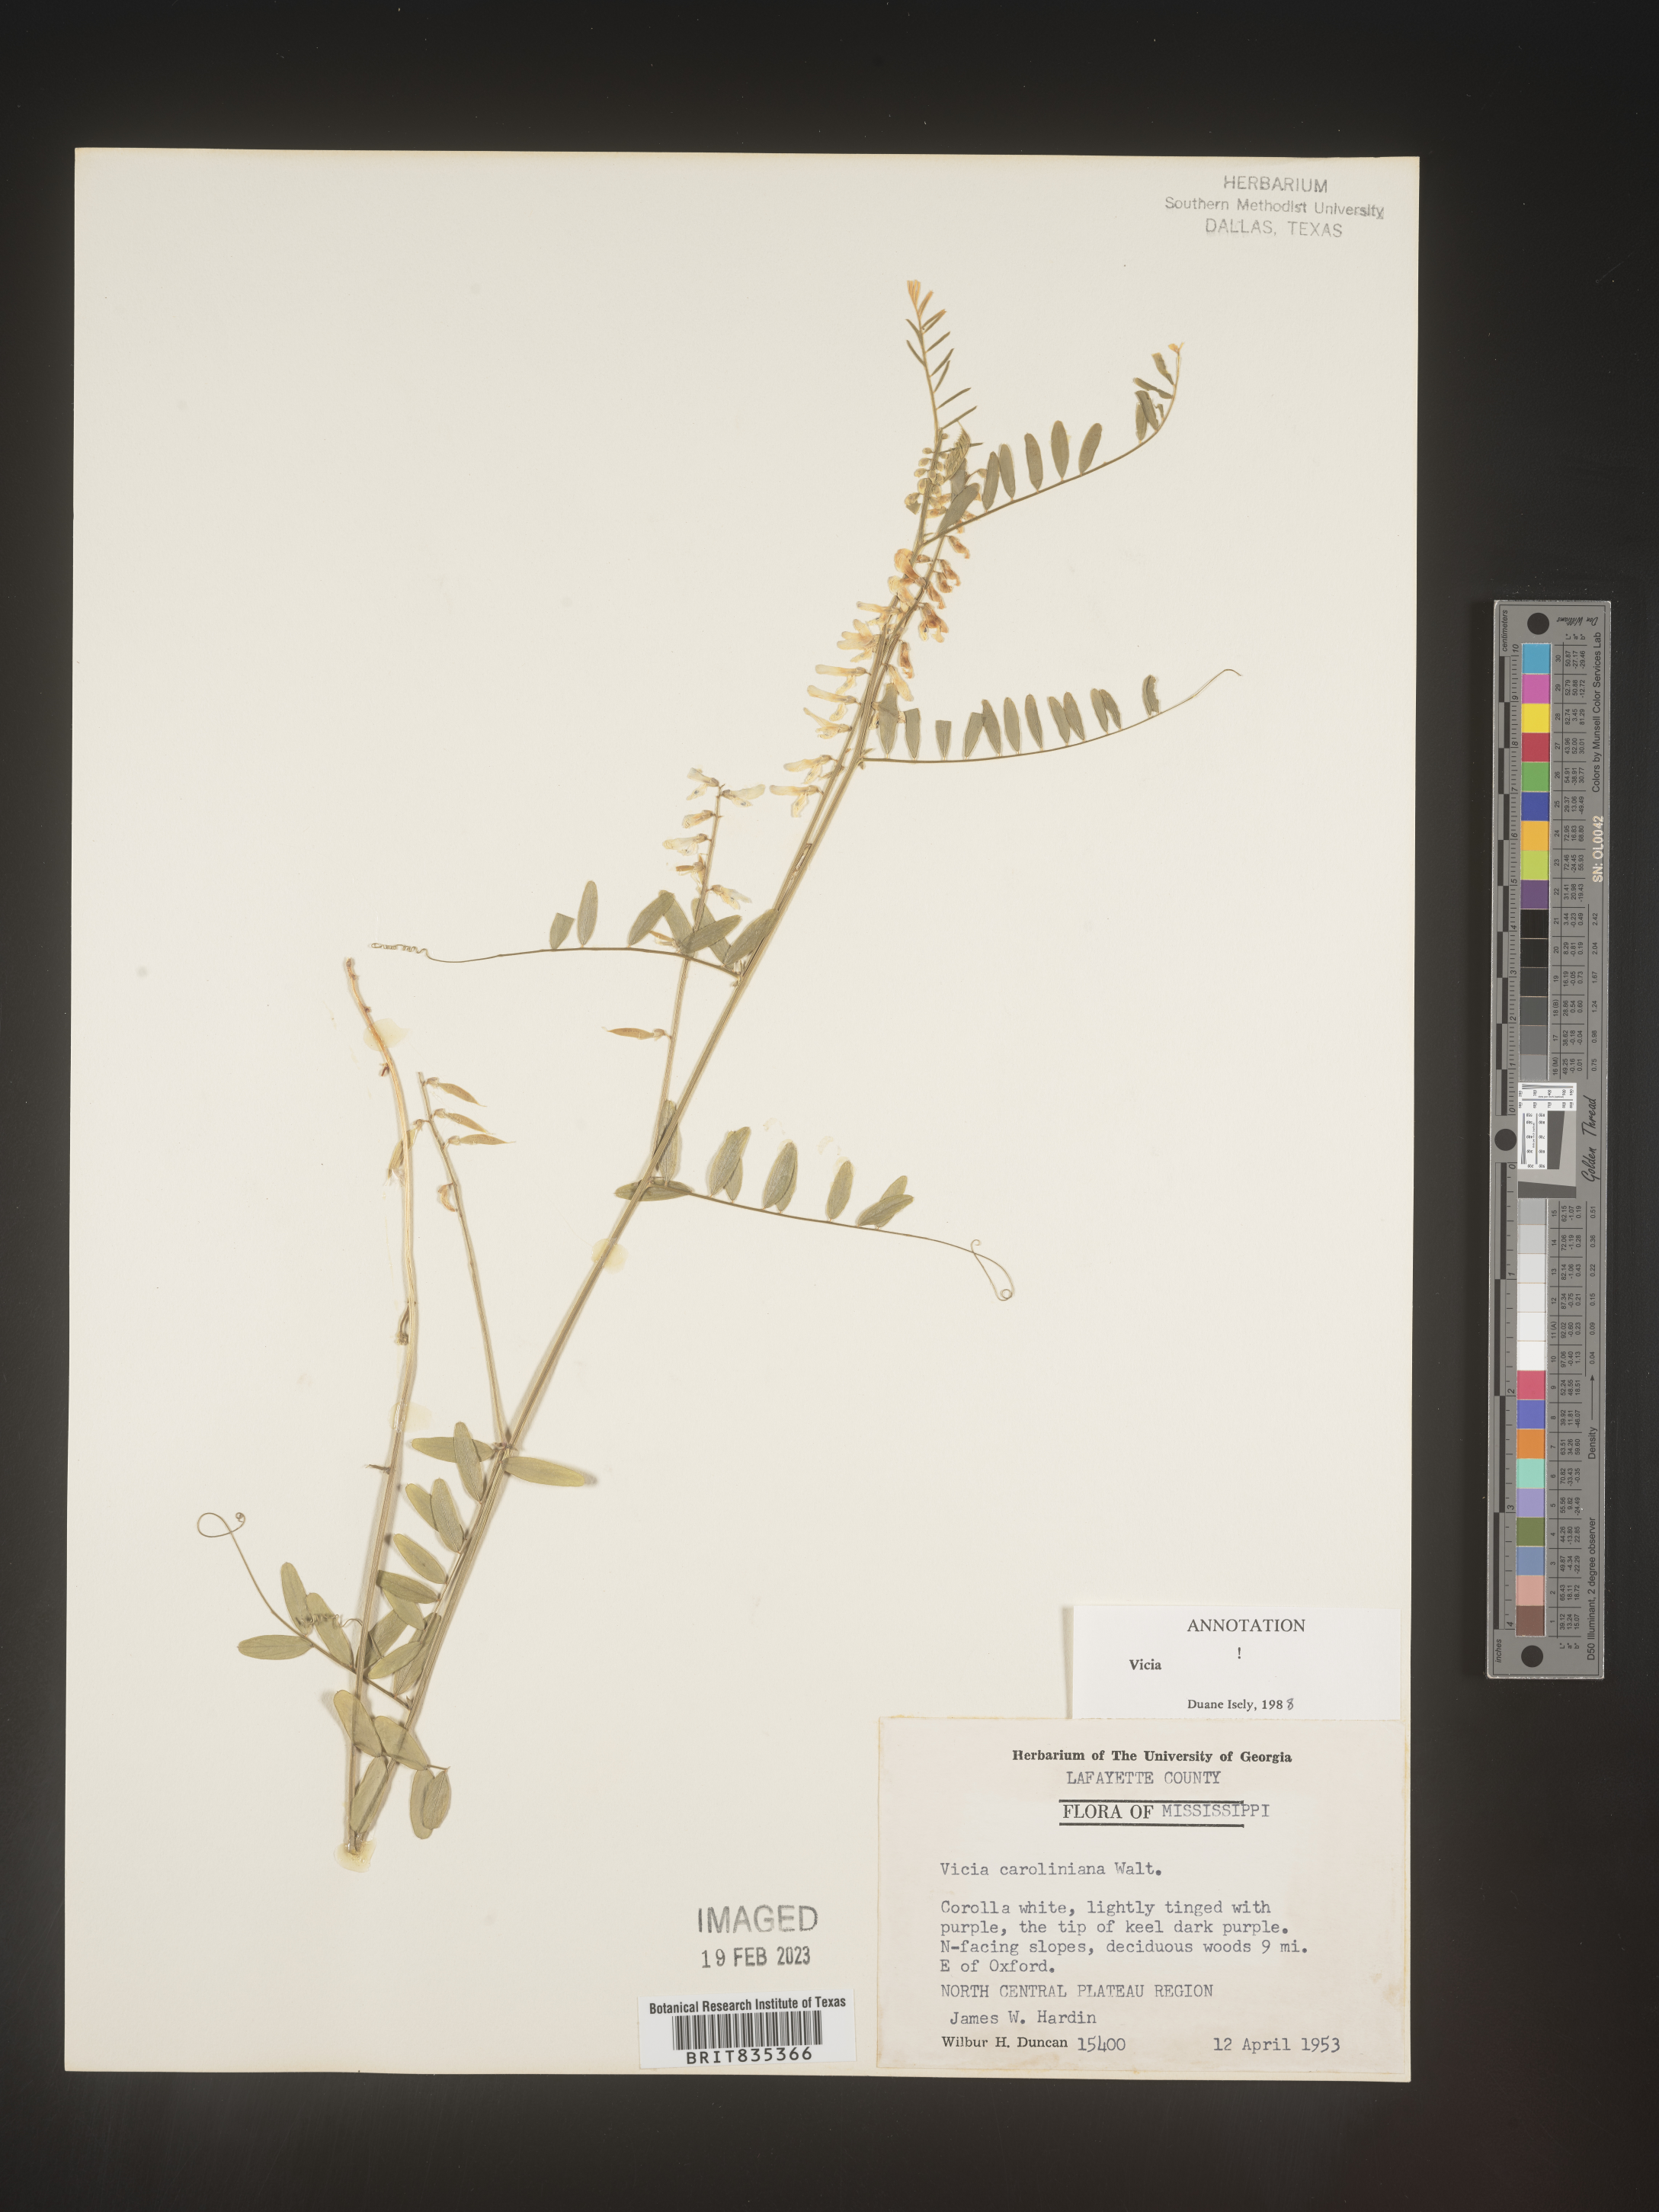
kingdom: Plantae
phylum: Tracheophyta
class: Magnoliopsida
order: Fabales
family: Fabaceae
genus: Vicia
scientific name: Vicia caroliniana
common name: Carolina vetch
